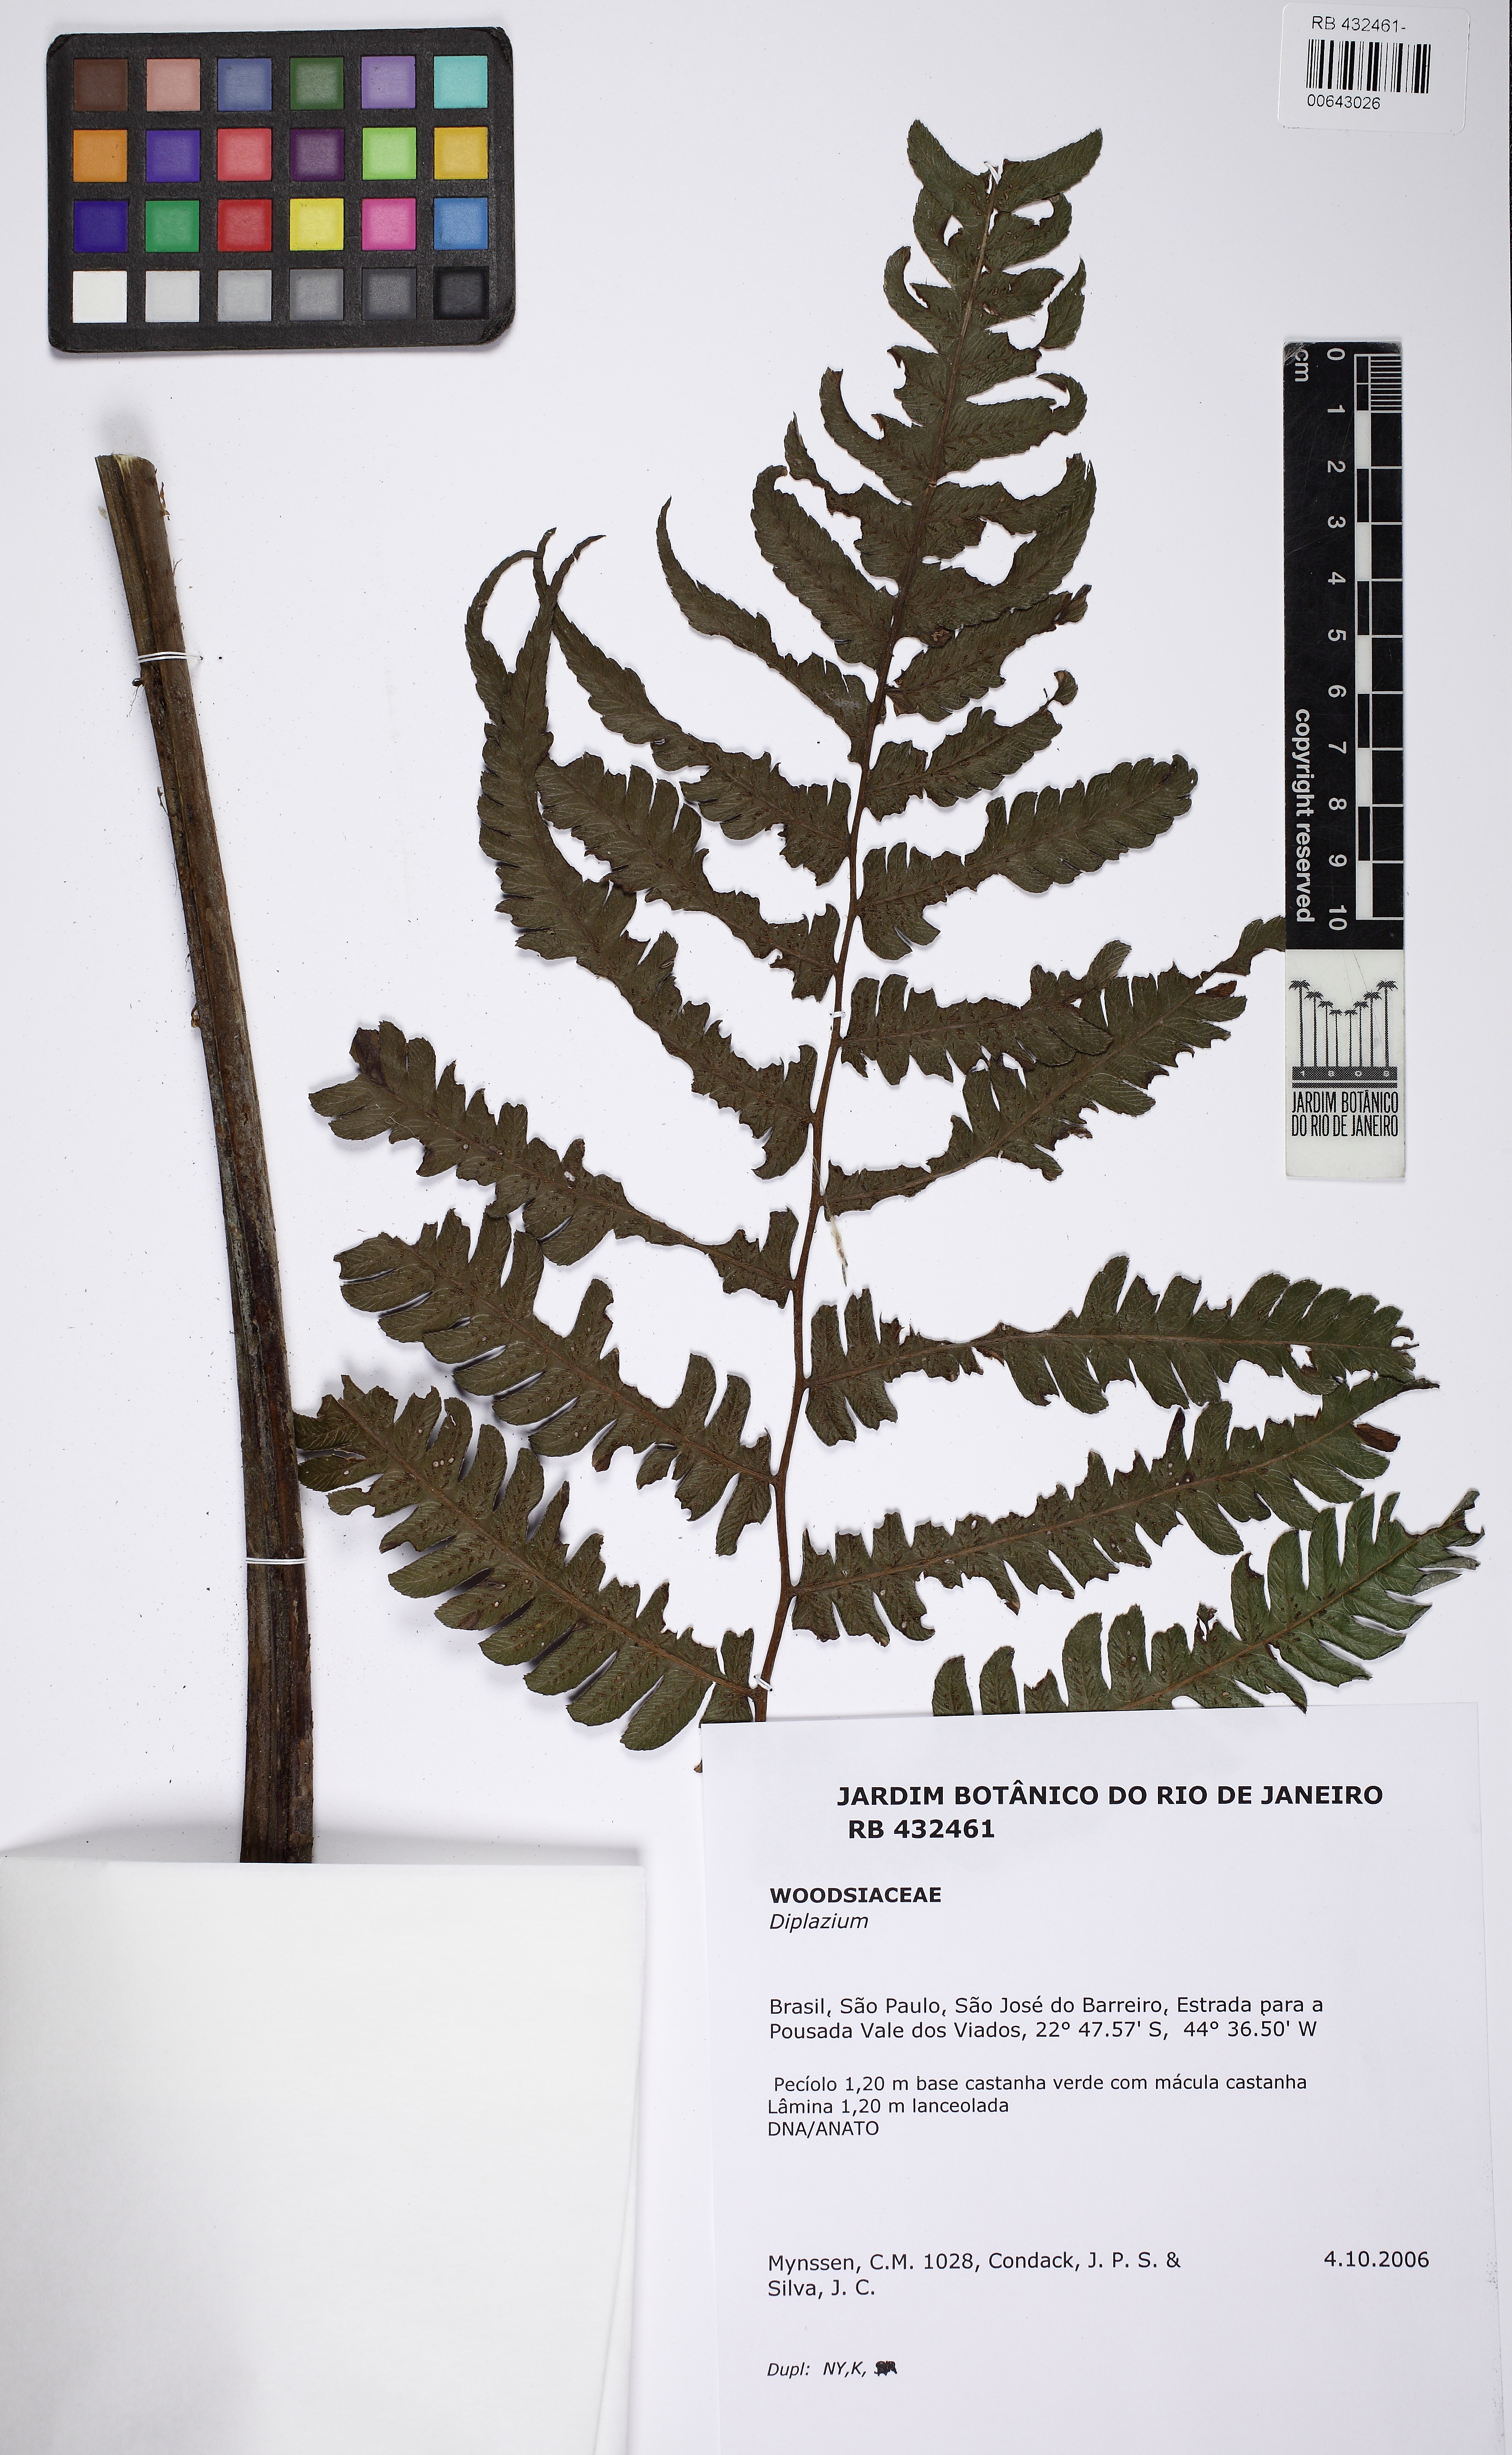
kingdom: Plantae
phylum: Tracheophyta
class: Polypodiopsida
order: Polypodiales
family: Athyriaceae
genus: Diplazium
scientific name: Diplazium
